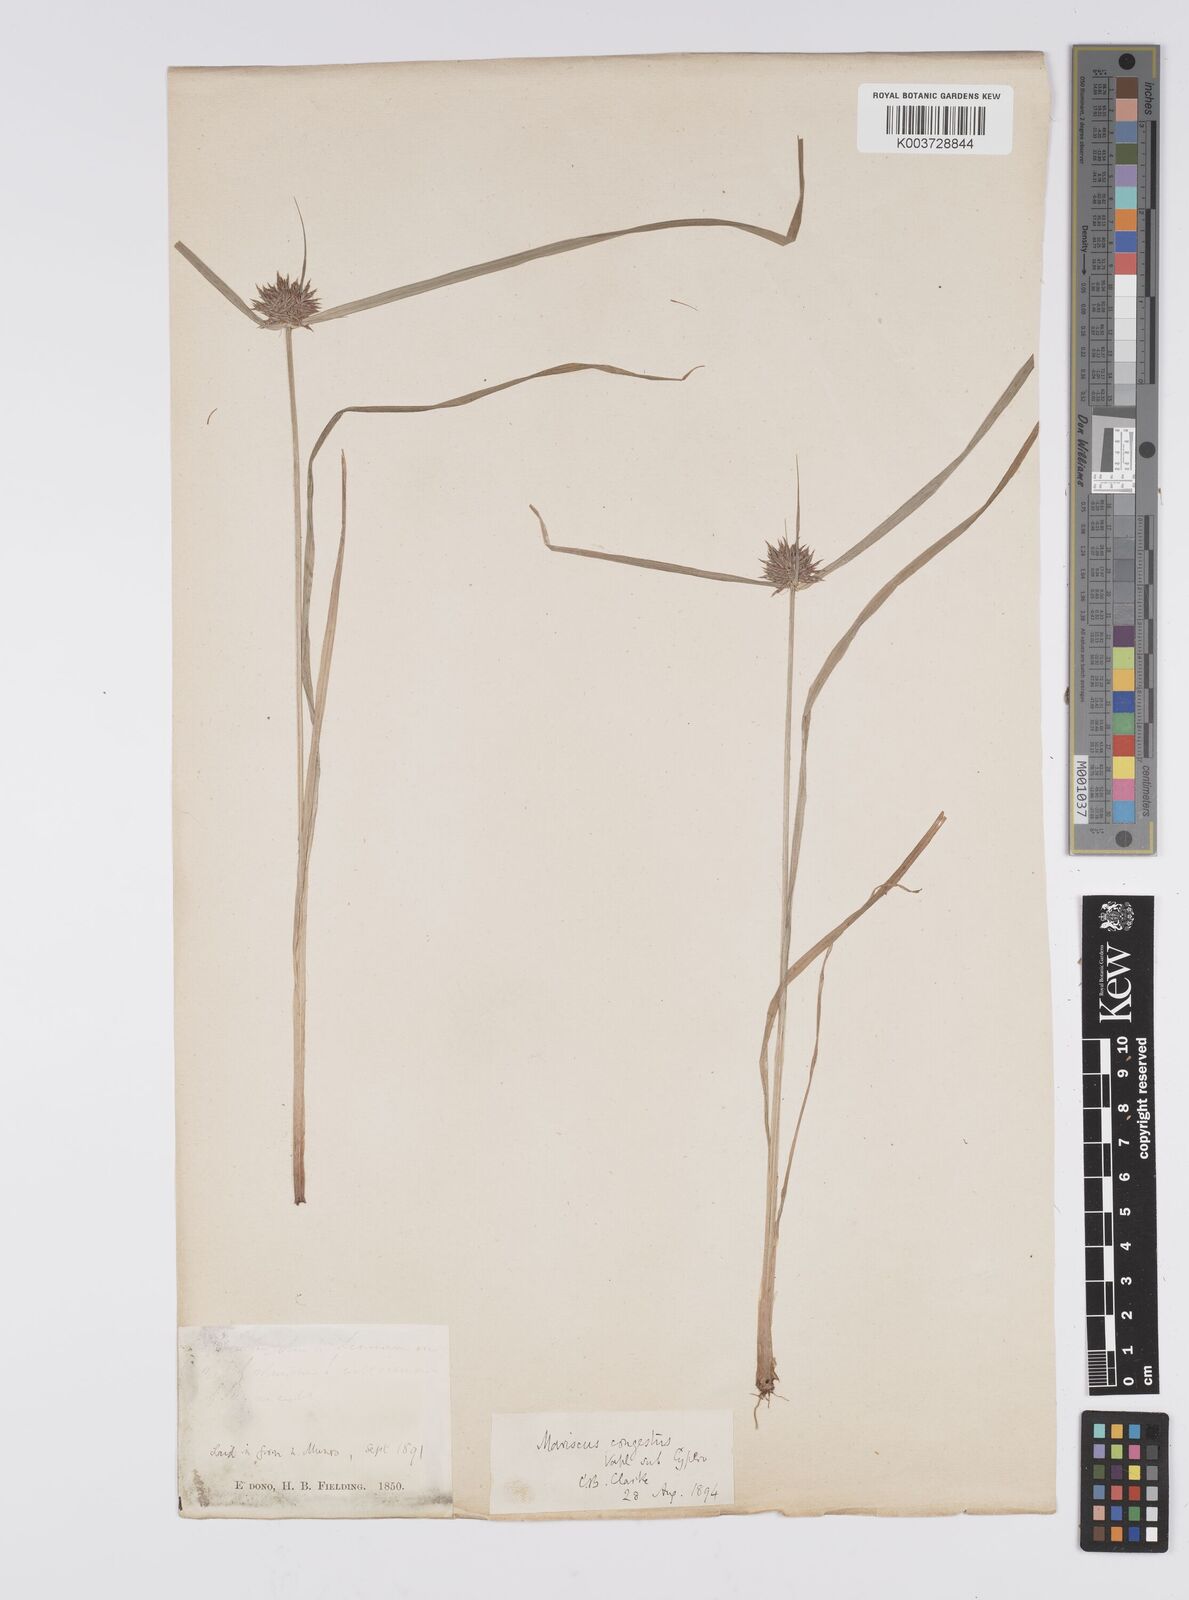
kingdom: Plantae
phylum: Tracheophyta
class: Liliopsida
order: Poales
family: Cyperaceae
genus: Cyperus
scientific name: Cyperus congestus
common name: Dense flat sedge
